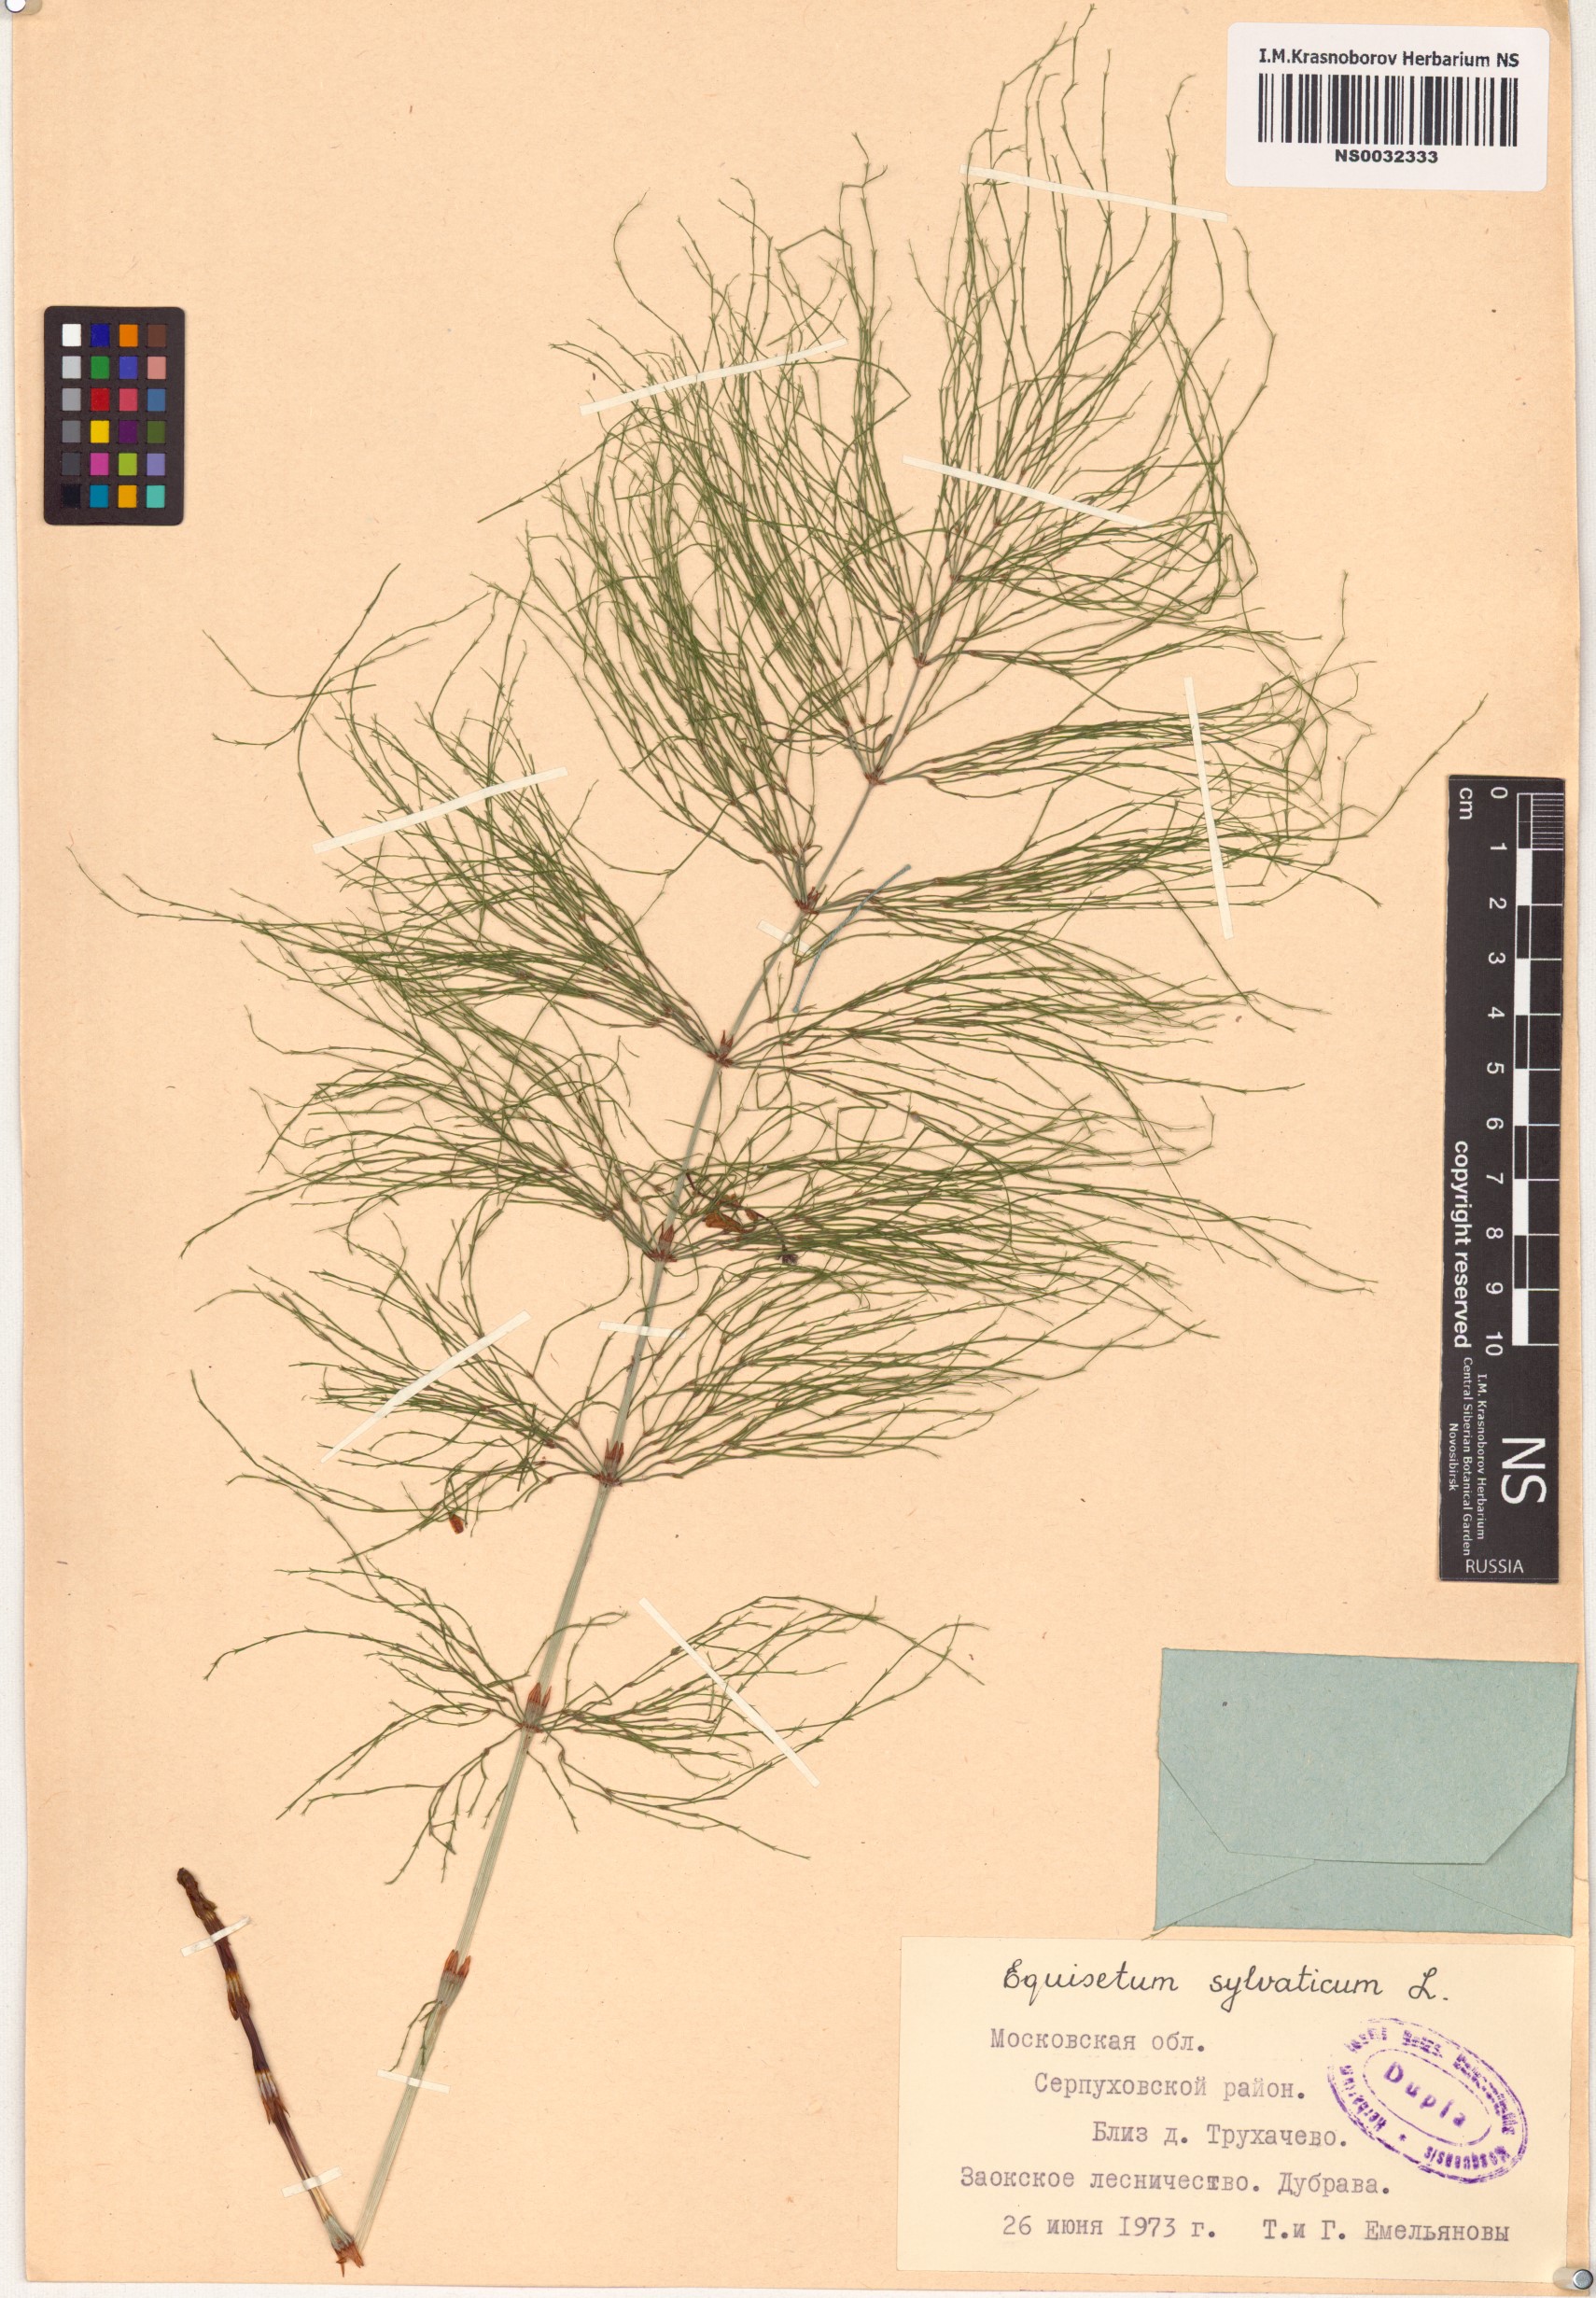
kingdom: Plantae
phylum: Tracheophyta
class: Polypodiopsida
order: Equisetales
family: Equisetaceae
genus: Equisetum
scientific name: Equisetum sylvaticum
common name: Wood horsetail
